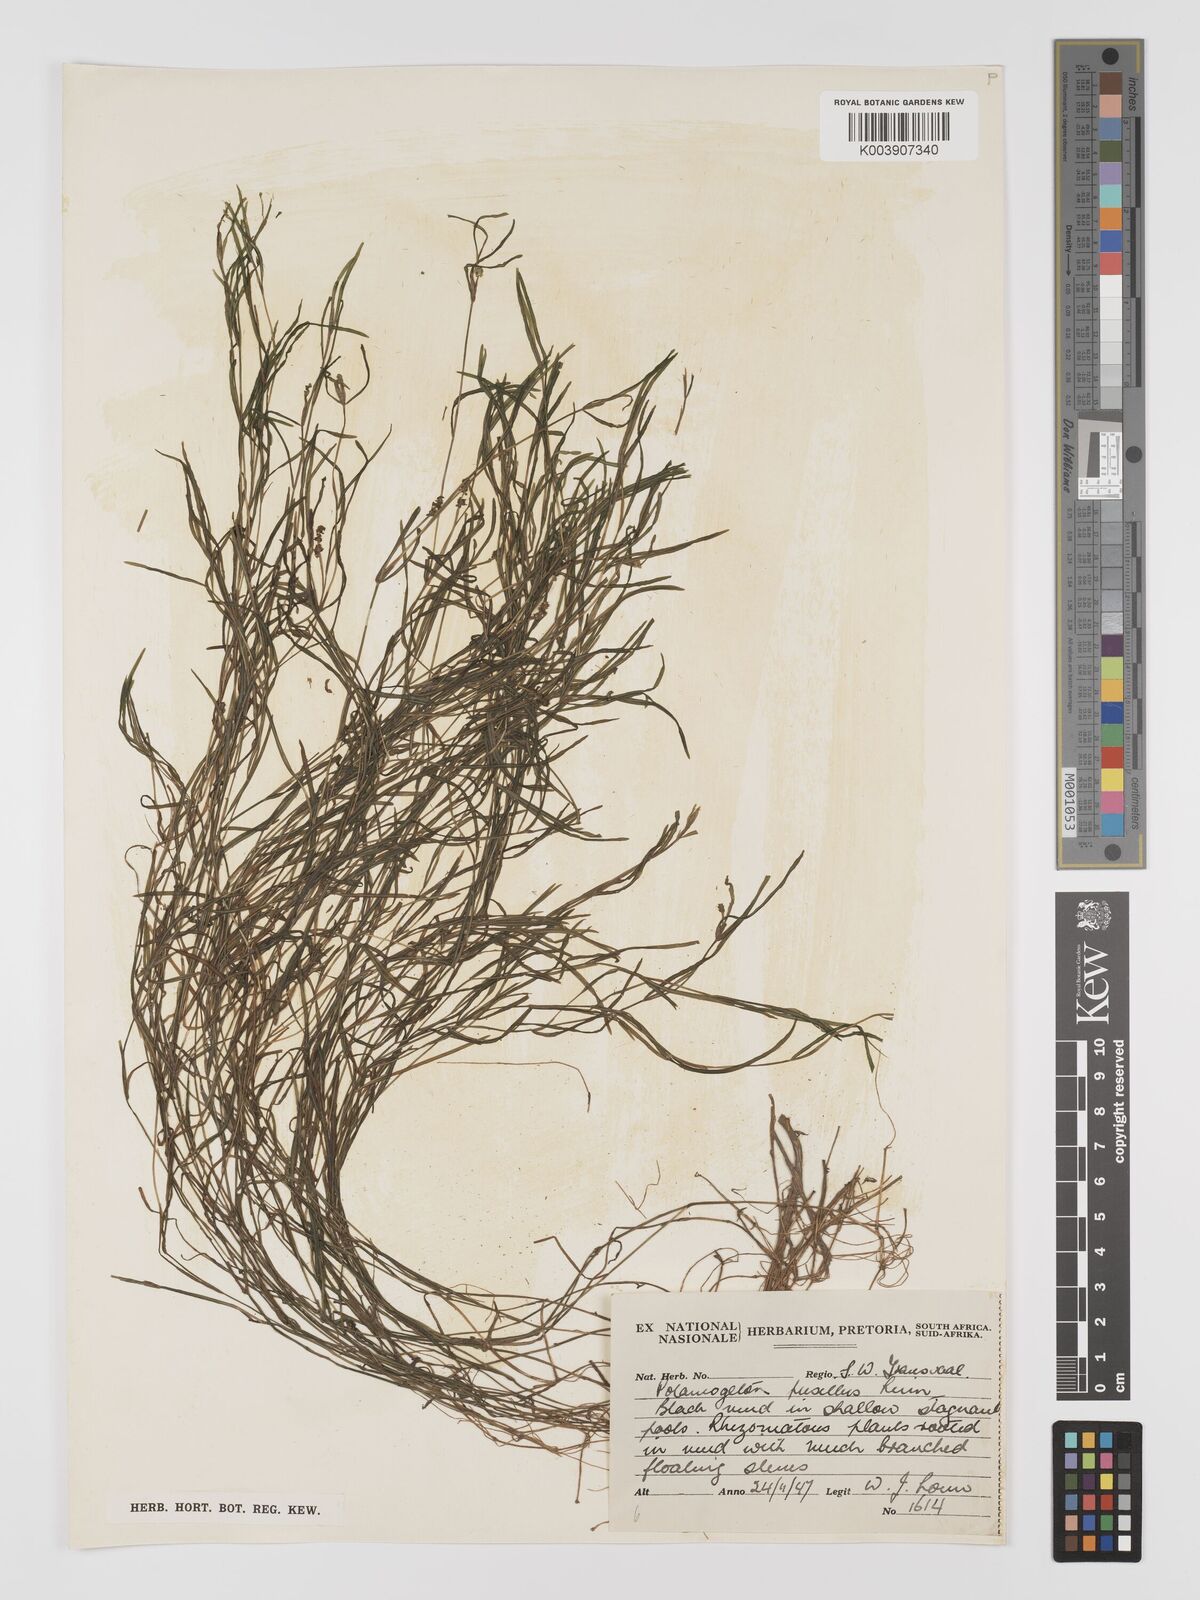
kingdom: Plantae
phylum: Tracheophyta
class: Liliopsida
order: Alismatales
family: Potamogetonaceae
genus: Potamogeton
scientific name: Potamogeton pusillus
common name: Lesser pondweed
